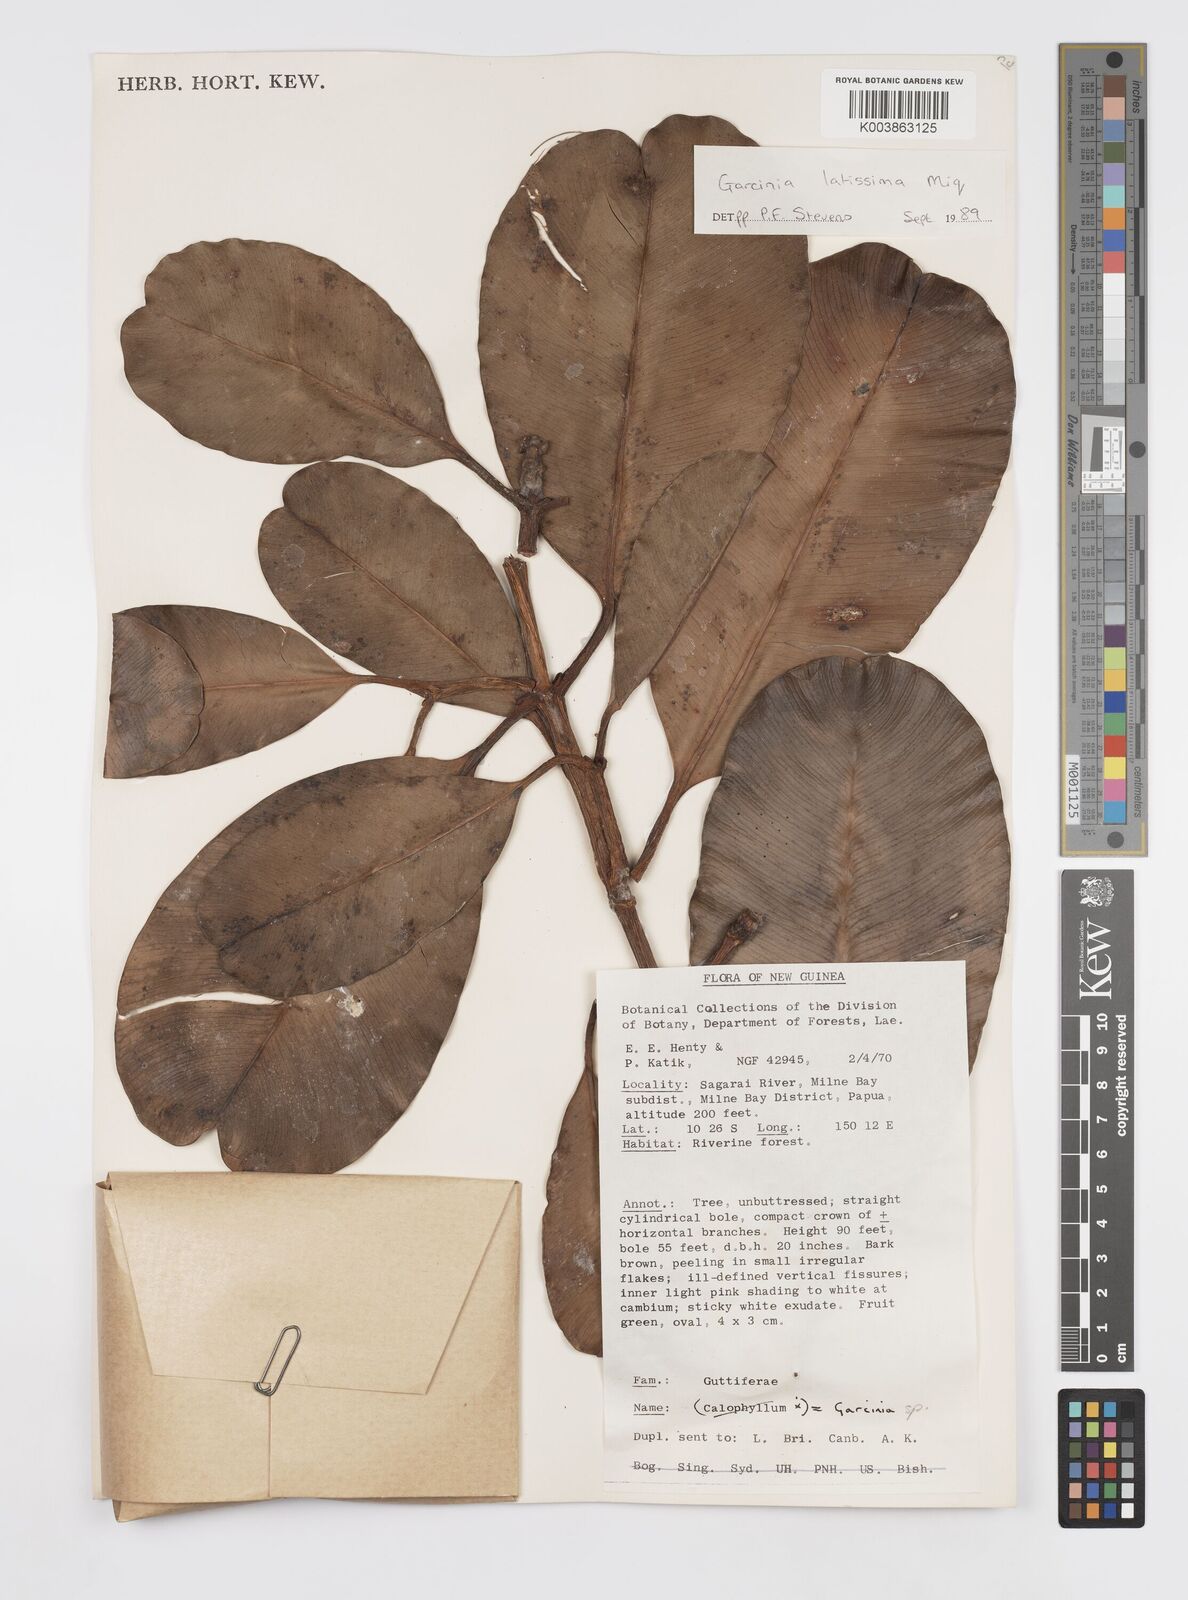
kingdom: Plantae
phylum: Tracheophyta
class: Magnoliopsida
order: Malpighiales
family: Clusiaceae
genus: Garcinia
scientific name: Garcinia latissima
